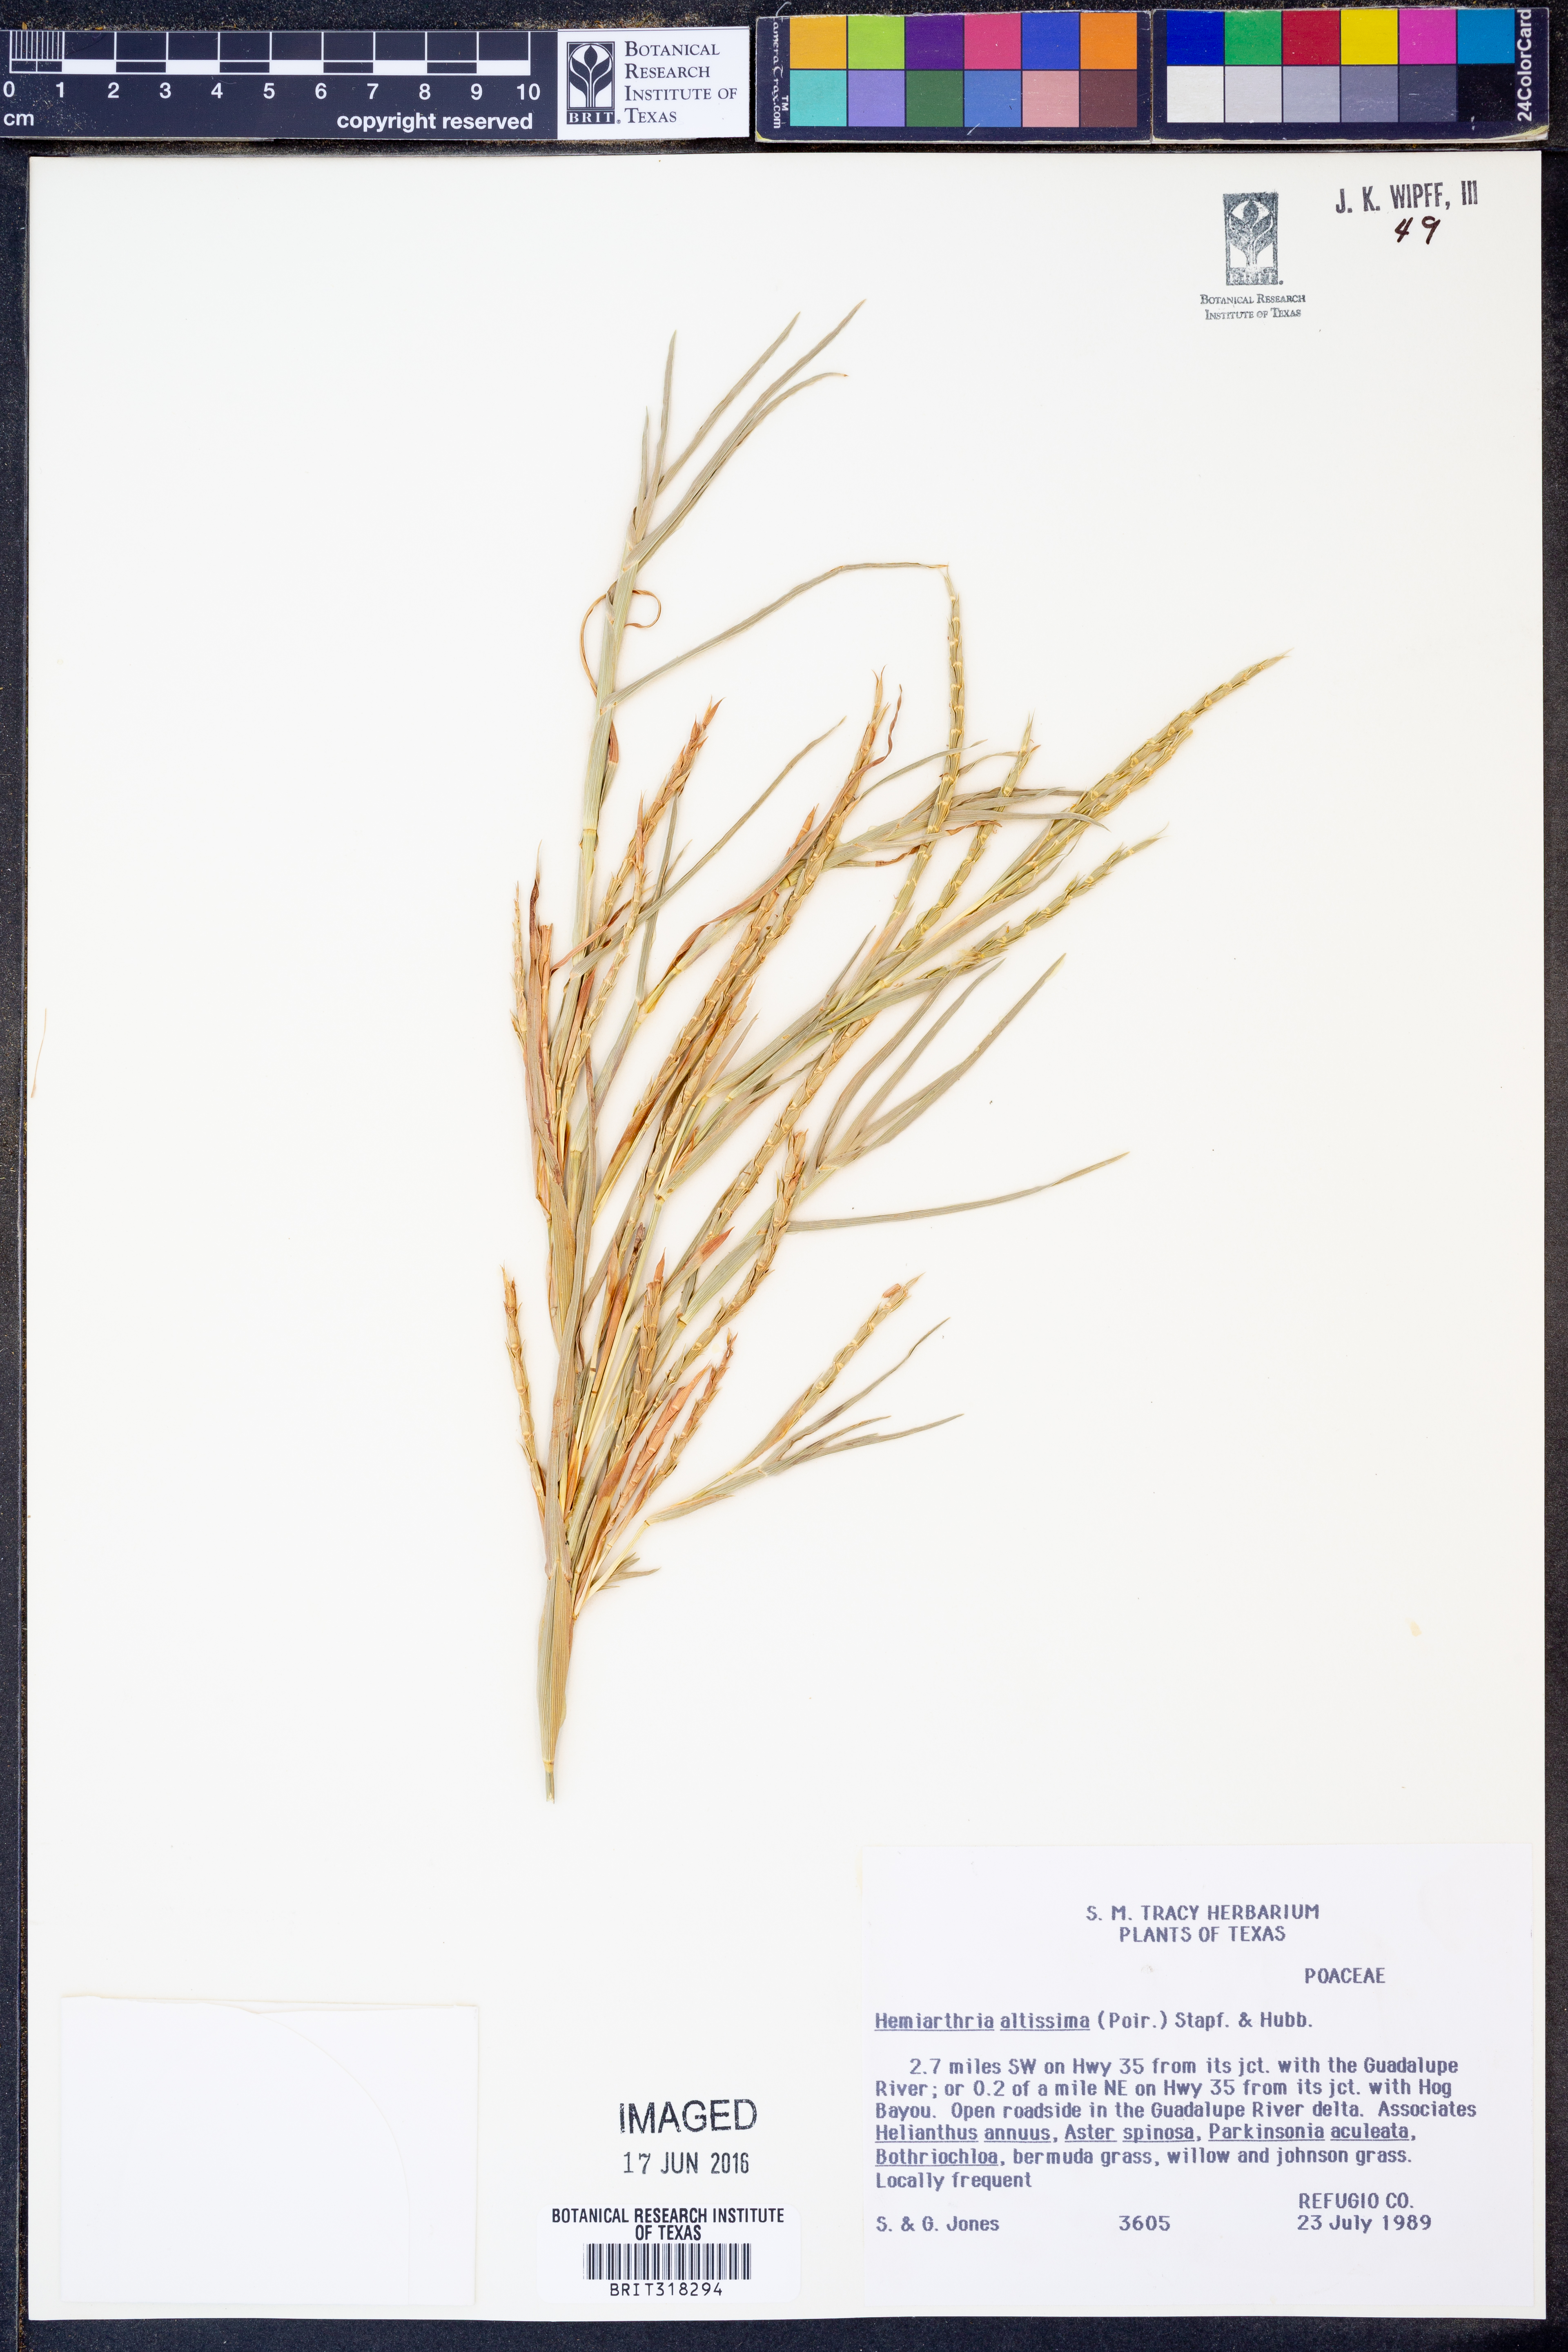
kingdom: Plantae
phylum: Tracheophyta
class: Liliopsida
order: Poales
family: Poaceae
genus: Hemarthria
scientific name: Hemarthria altissima
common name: African jointgrass
